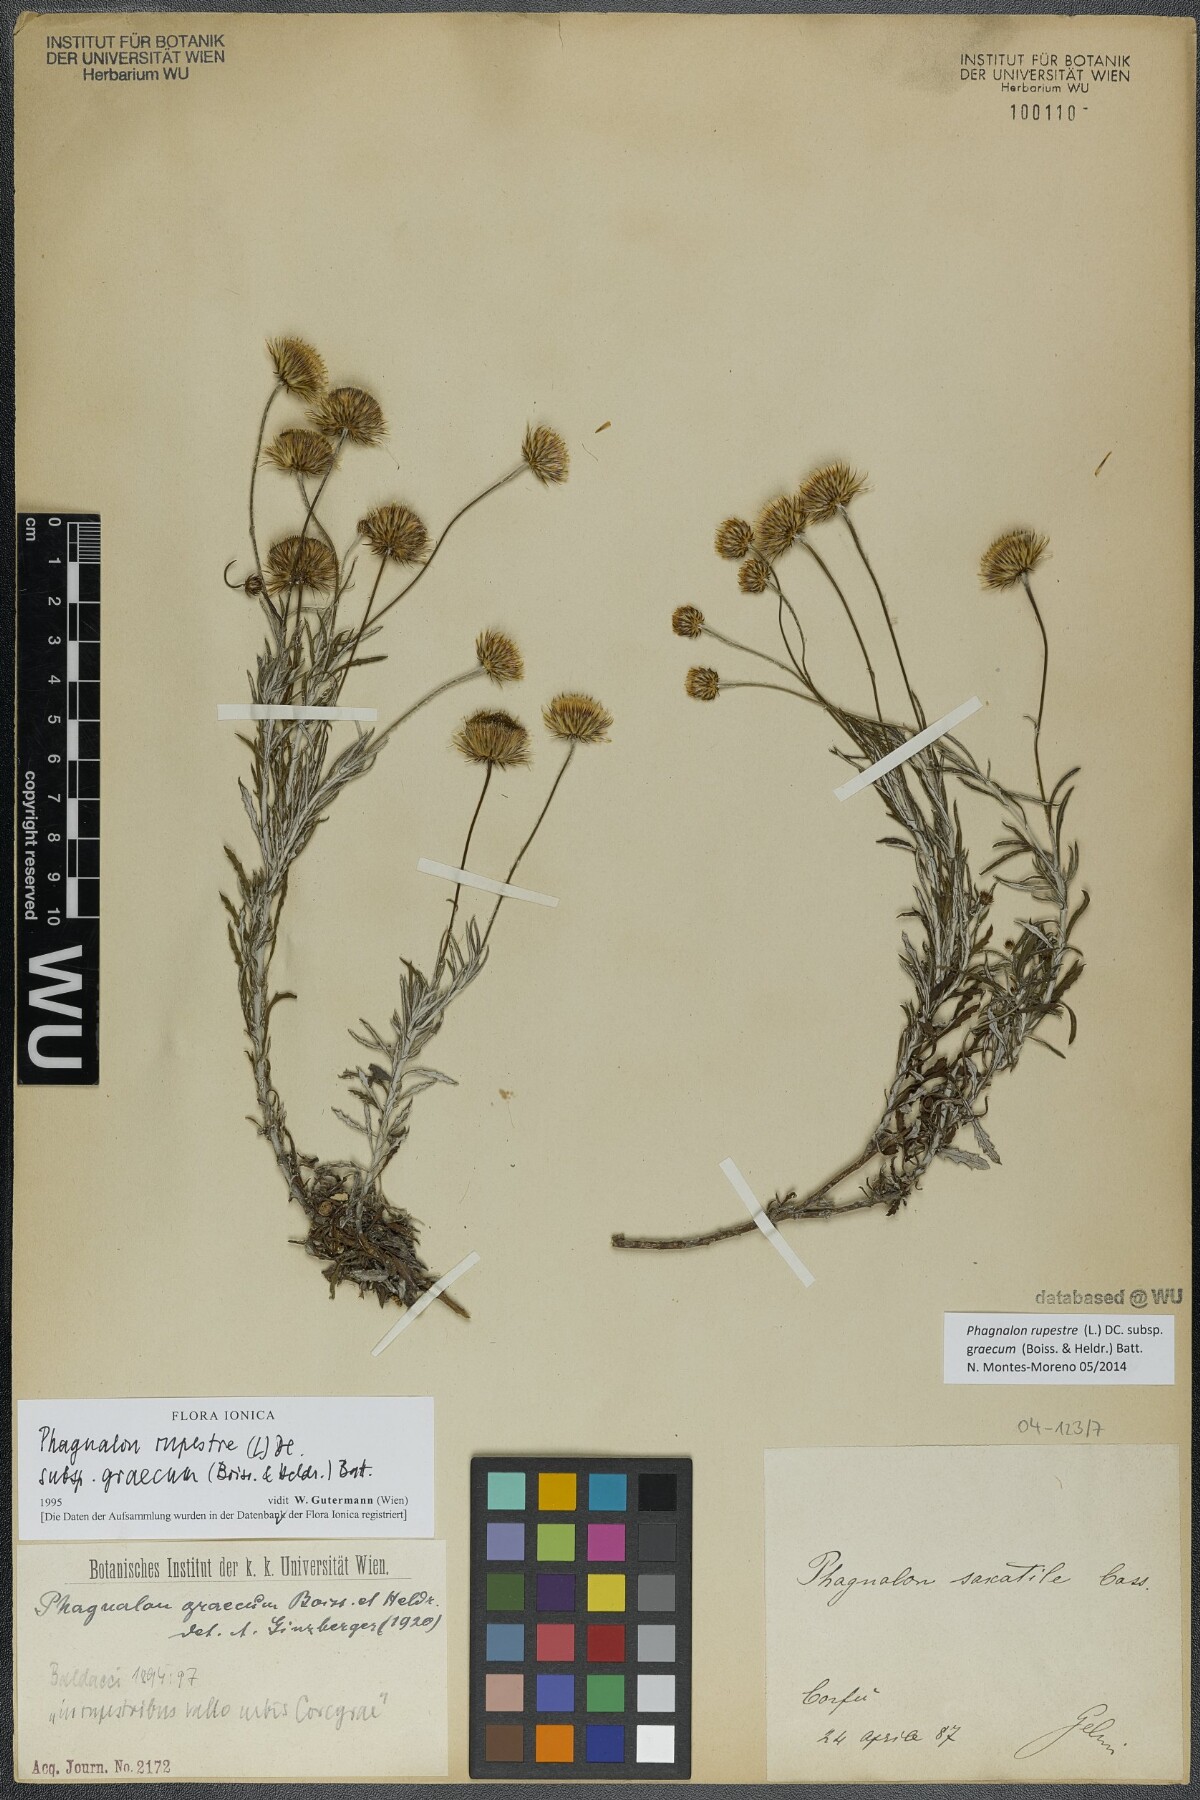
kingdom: Plantae
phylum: Tracheophyta
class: Magnoliopsida
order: Asterales
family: Asteraceae
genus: Phagnalon
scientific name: Phagnalon graecum
